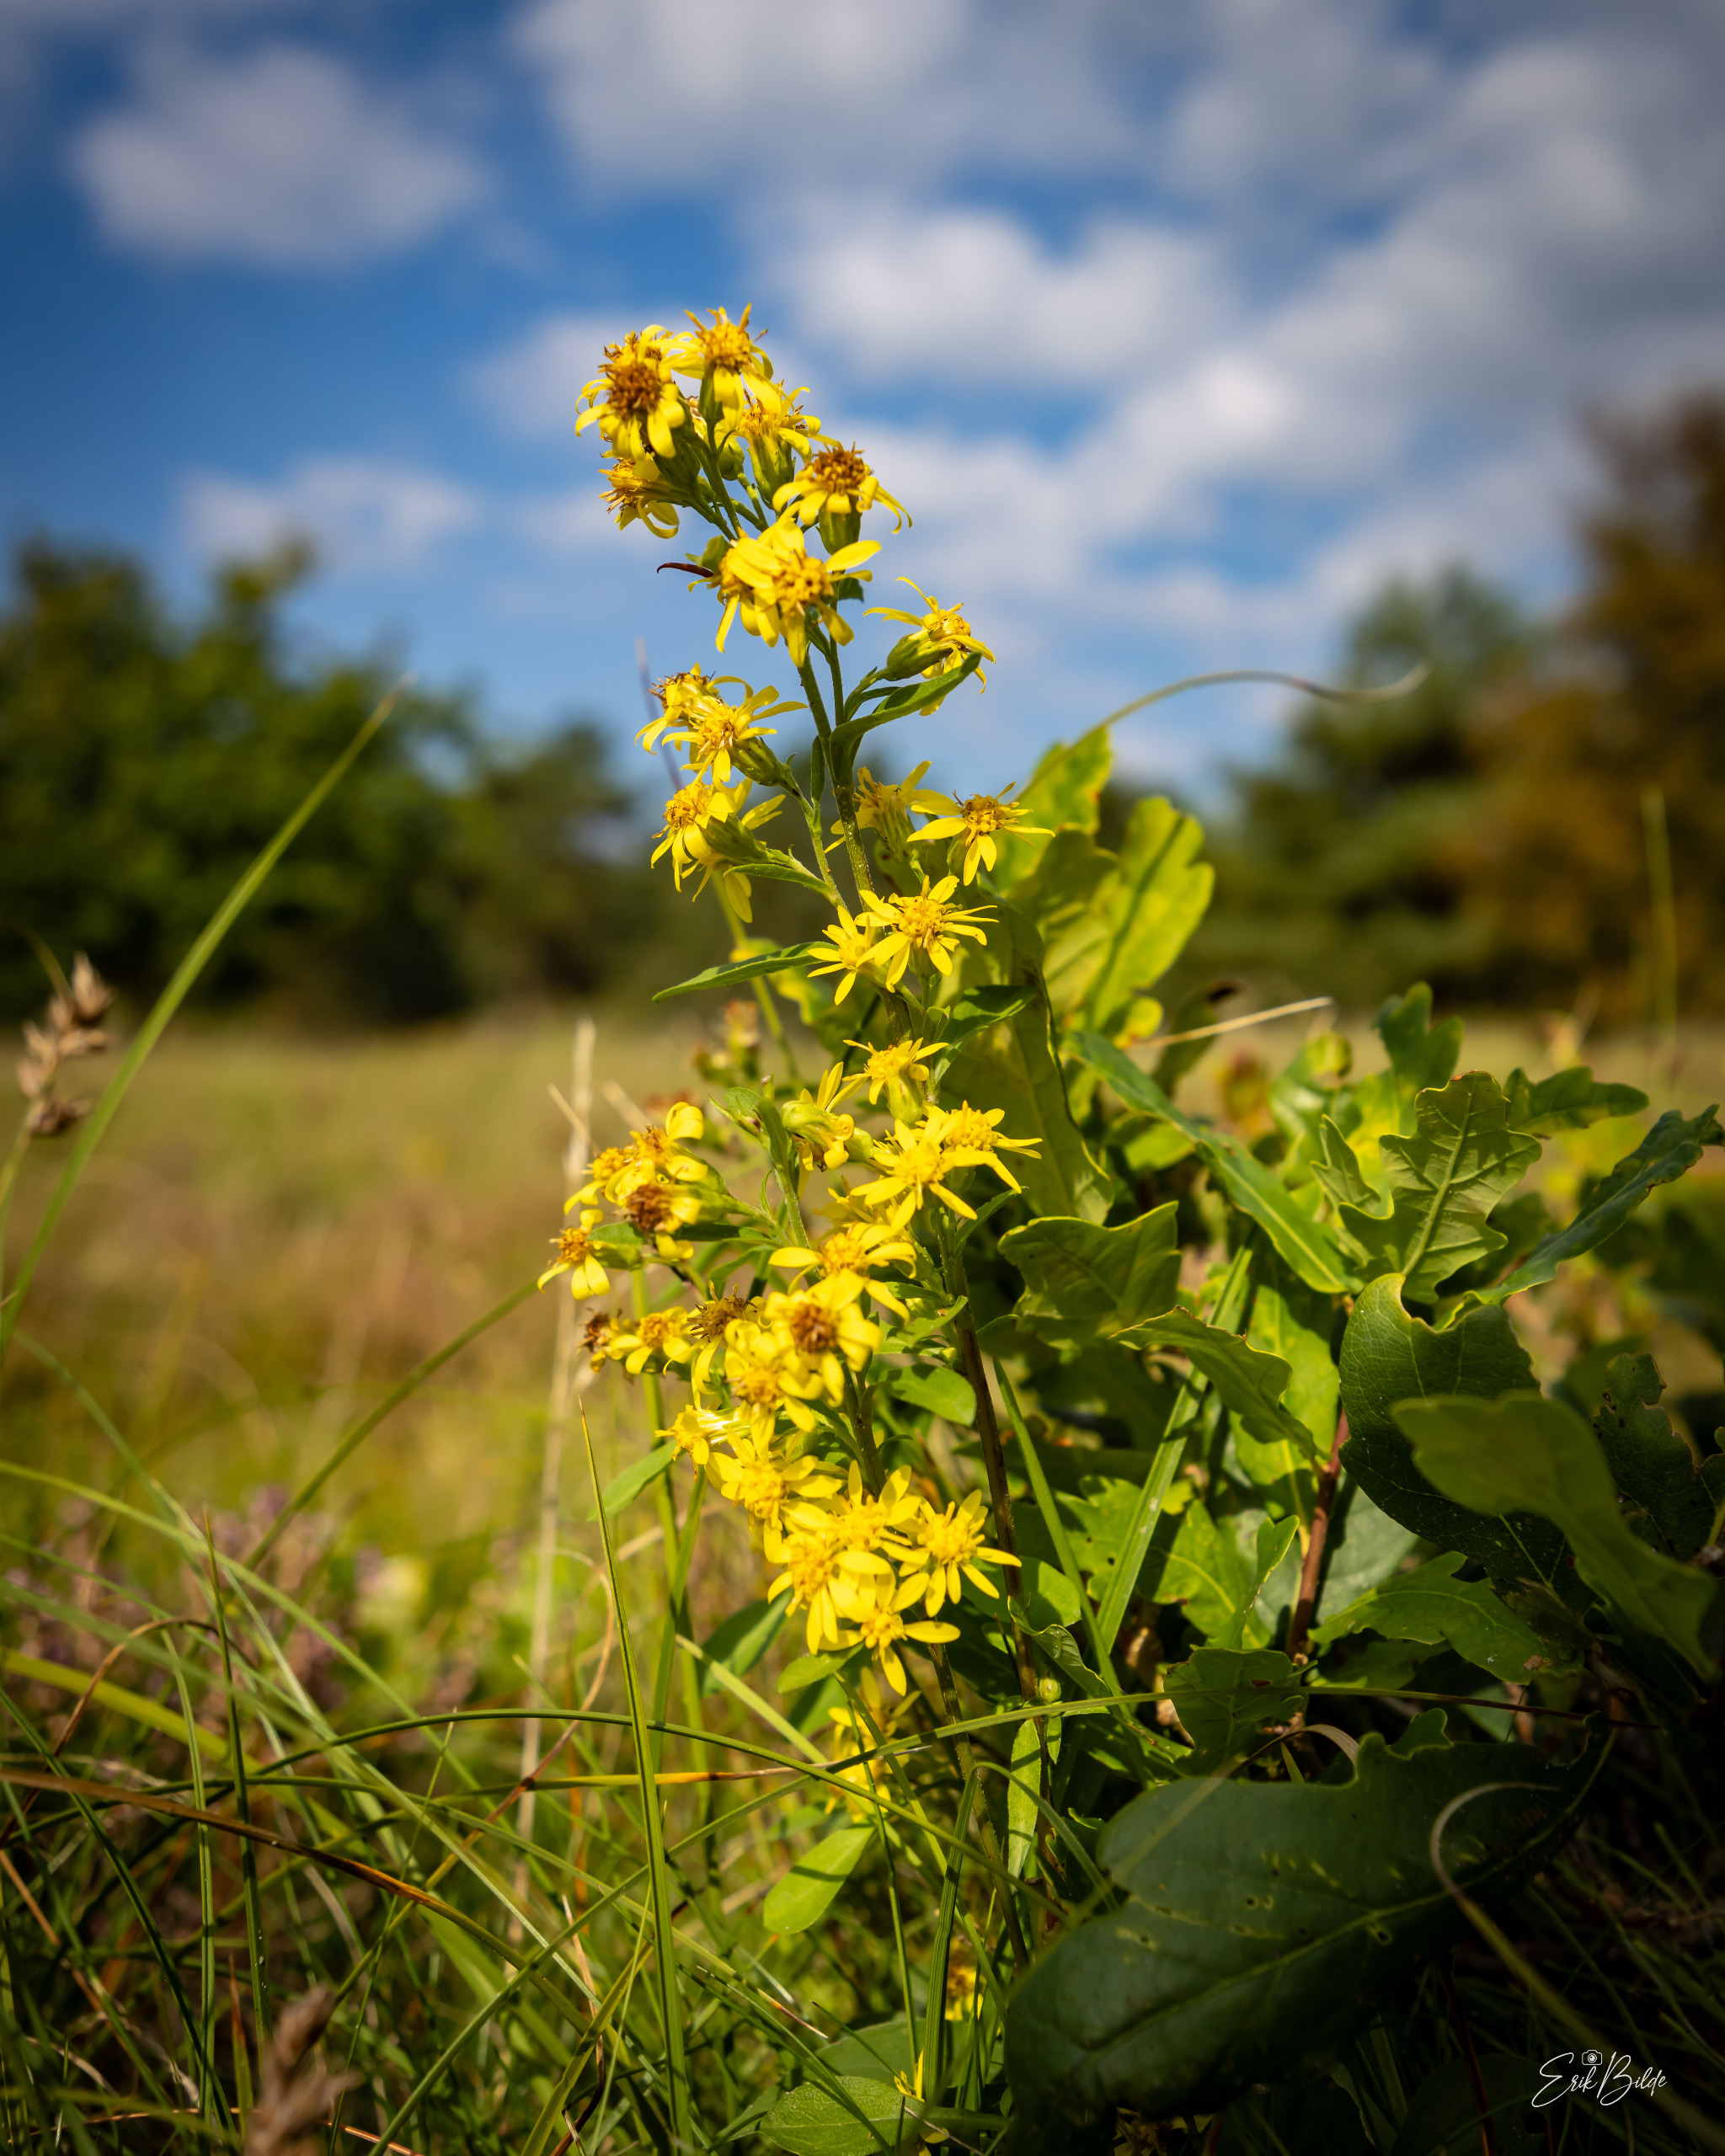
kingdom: Plantae
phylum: Tracheophyta
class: Magnoliopsida
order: Asterales
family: Asteraceae
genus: Solidago
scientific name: Solidago virgaurea
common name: Almindelig gyldenris
